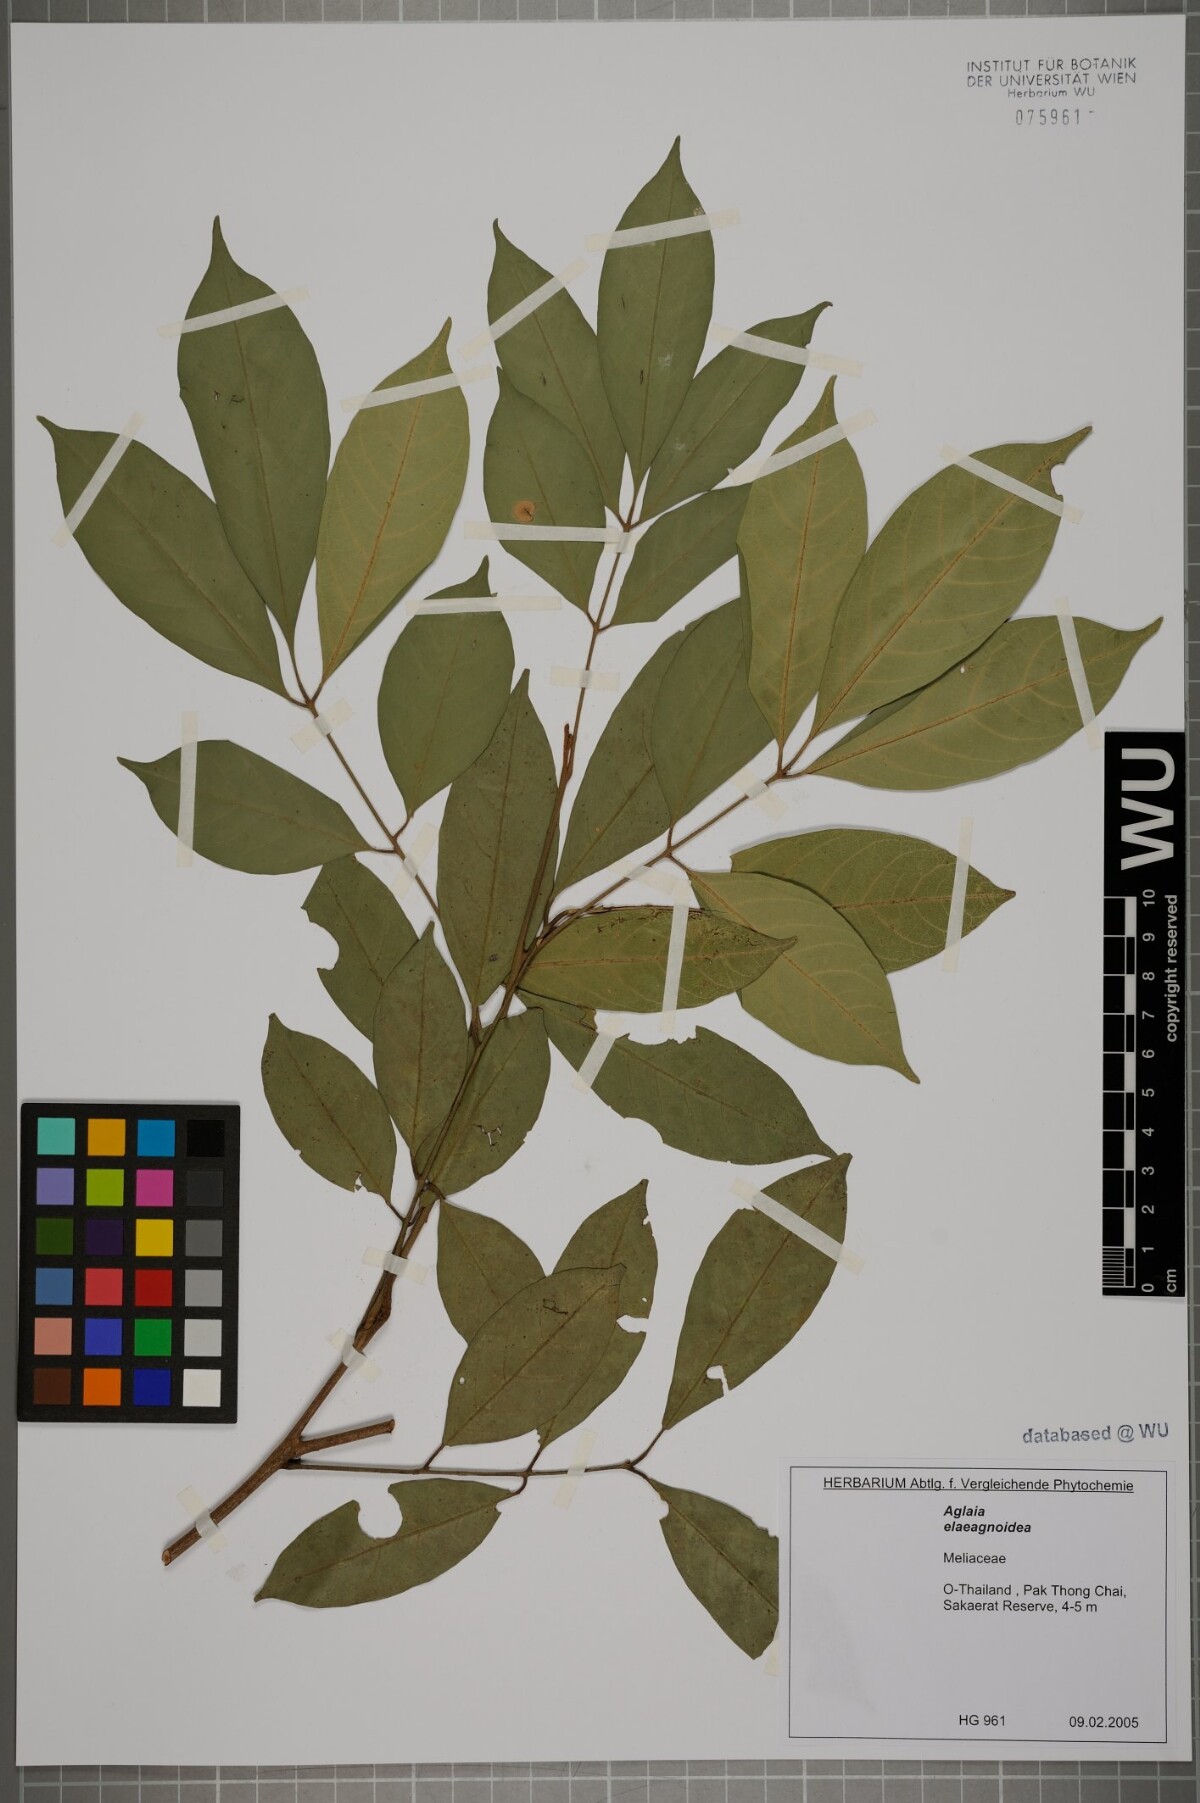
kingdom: Plantae
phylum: Tracheophyta
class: Magnoliopsida
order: Sapindales
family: Meliaceae
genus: Aglaia
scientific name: Aglaia elaeagnoidea
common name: Droopyleaf
